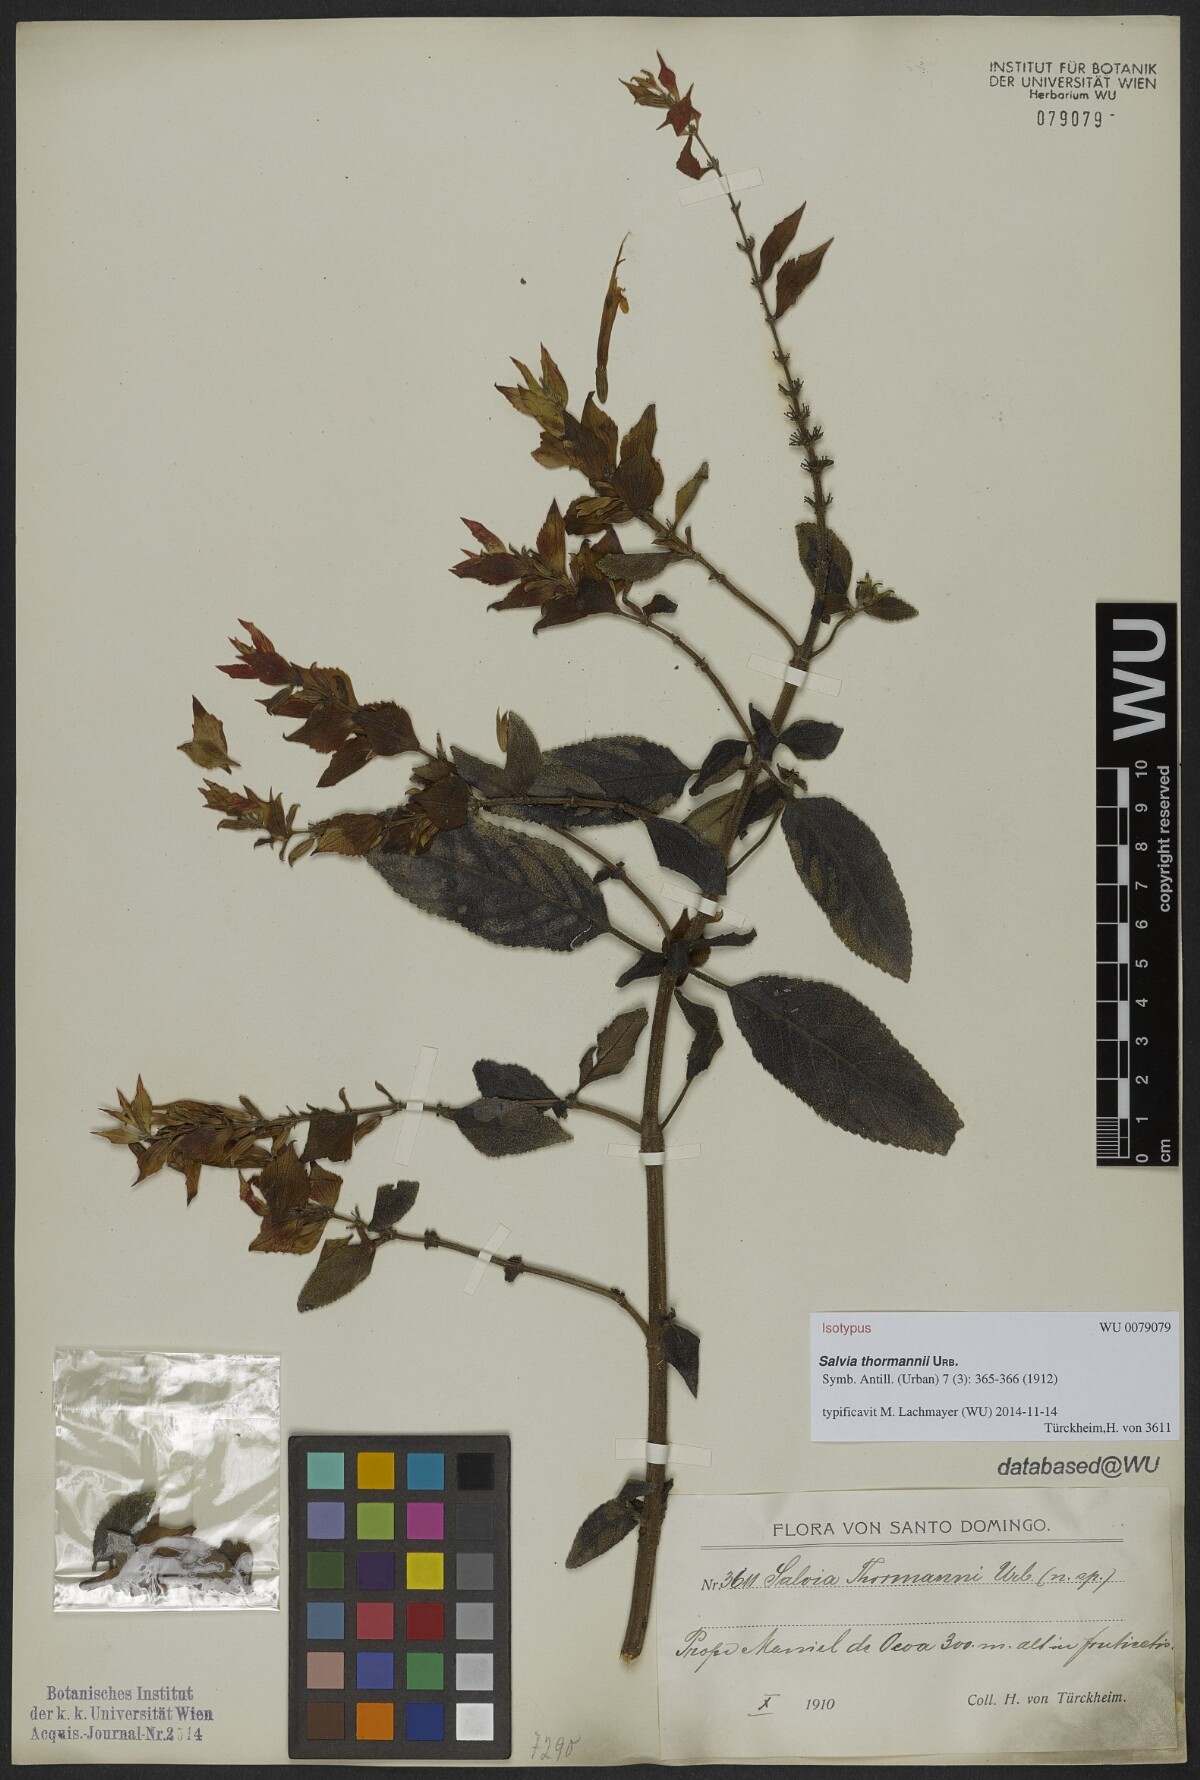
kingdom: Plantae
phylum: Tracheophyta
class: Magnoliopsida
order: Lamiales
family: Lamiaceae
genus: Salvia
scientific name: Salvia thormannii
